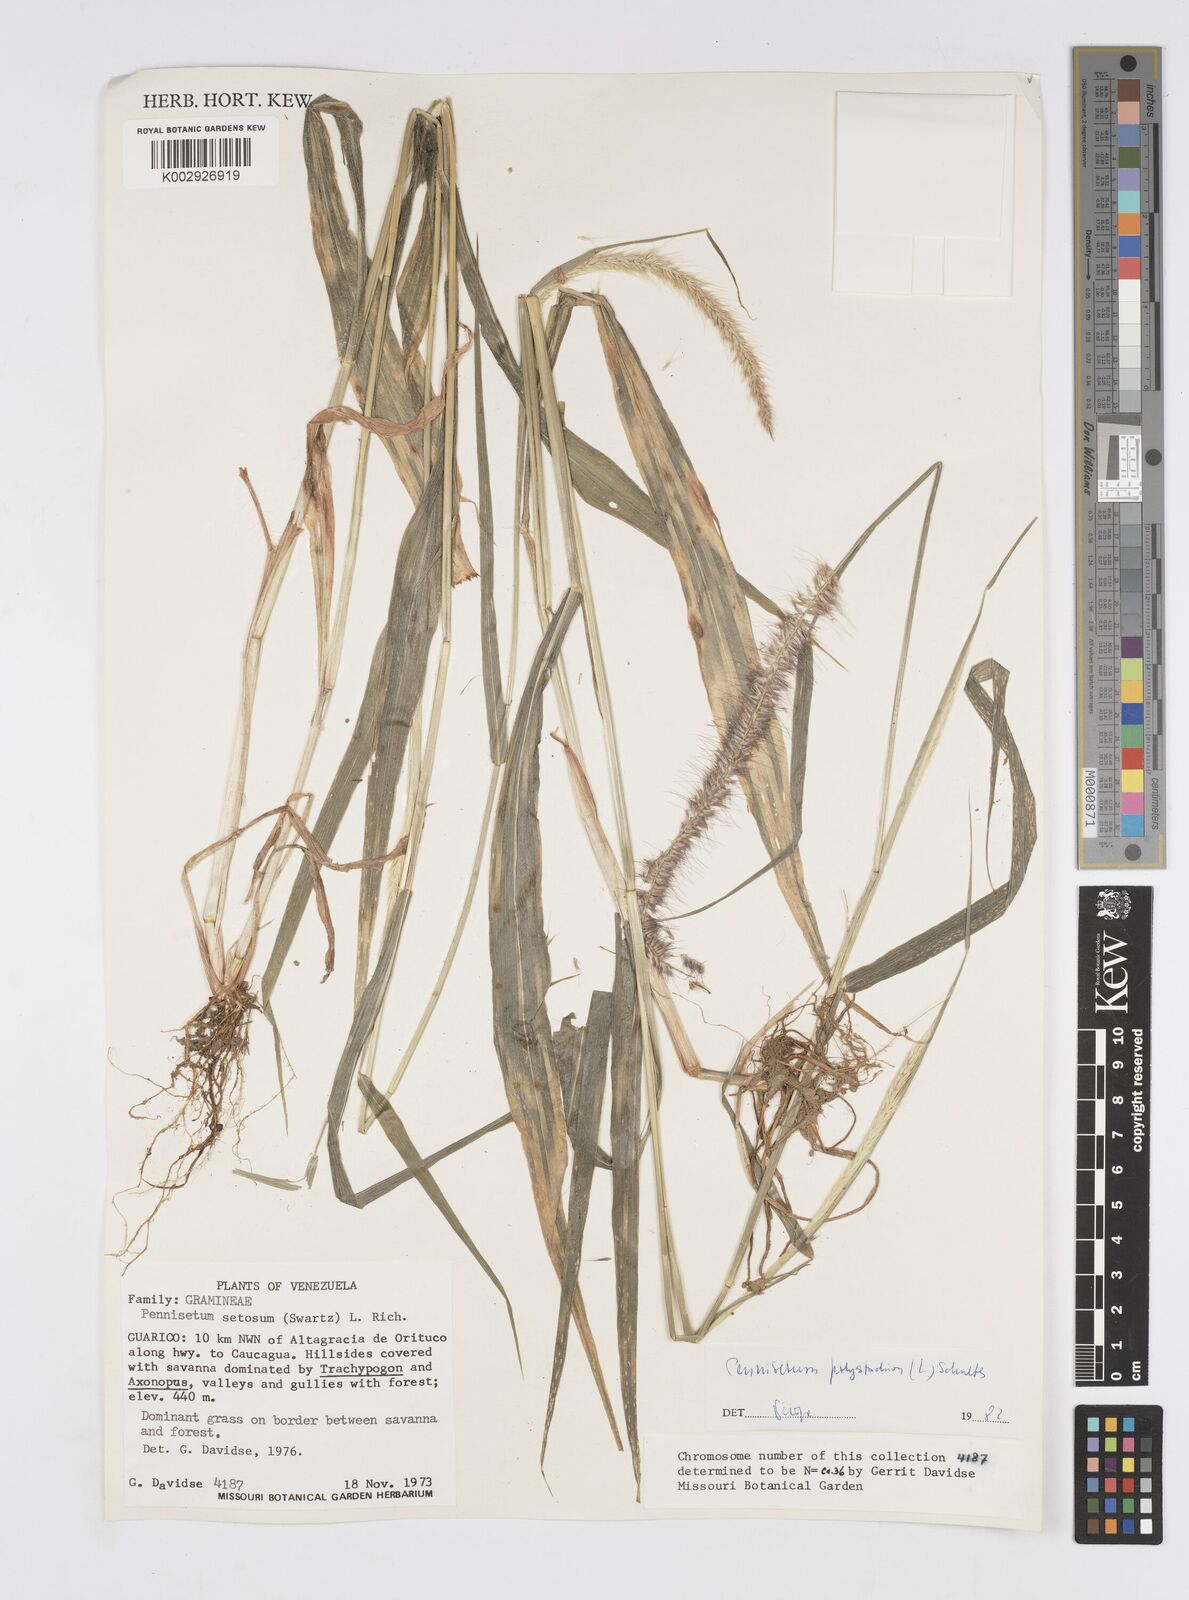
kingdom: Plantae
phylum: Tracheophyta
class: Liliopsida
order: Poales
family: Poaceae
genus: Setaria
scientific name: Setaria parviflora
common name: Knotroot bristle-grass
